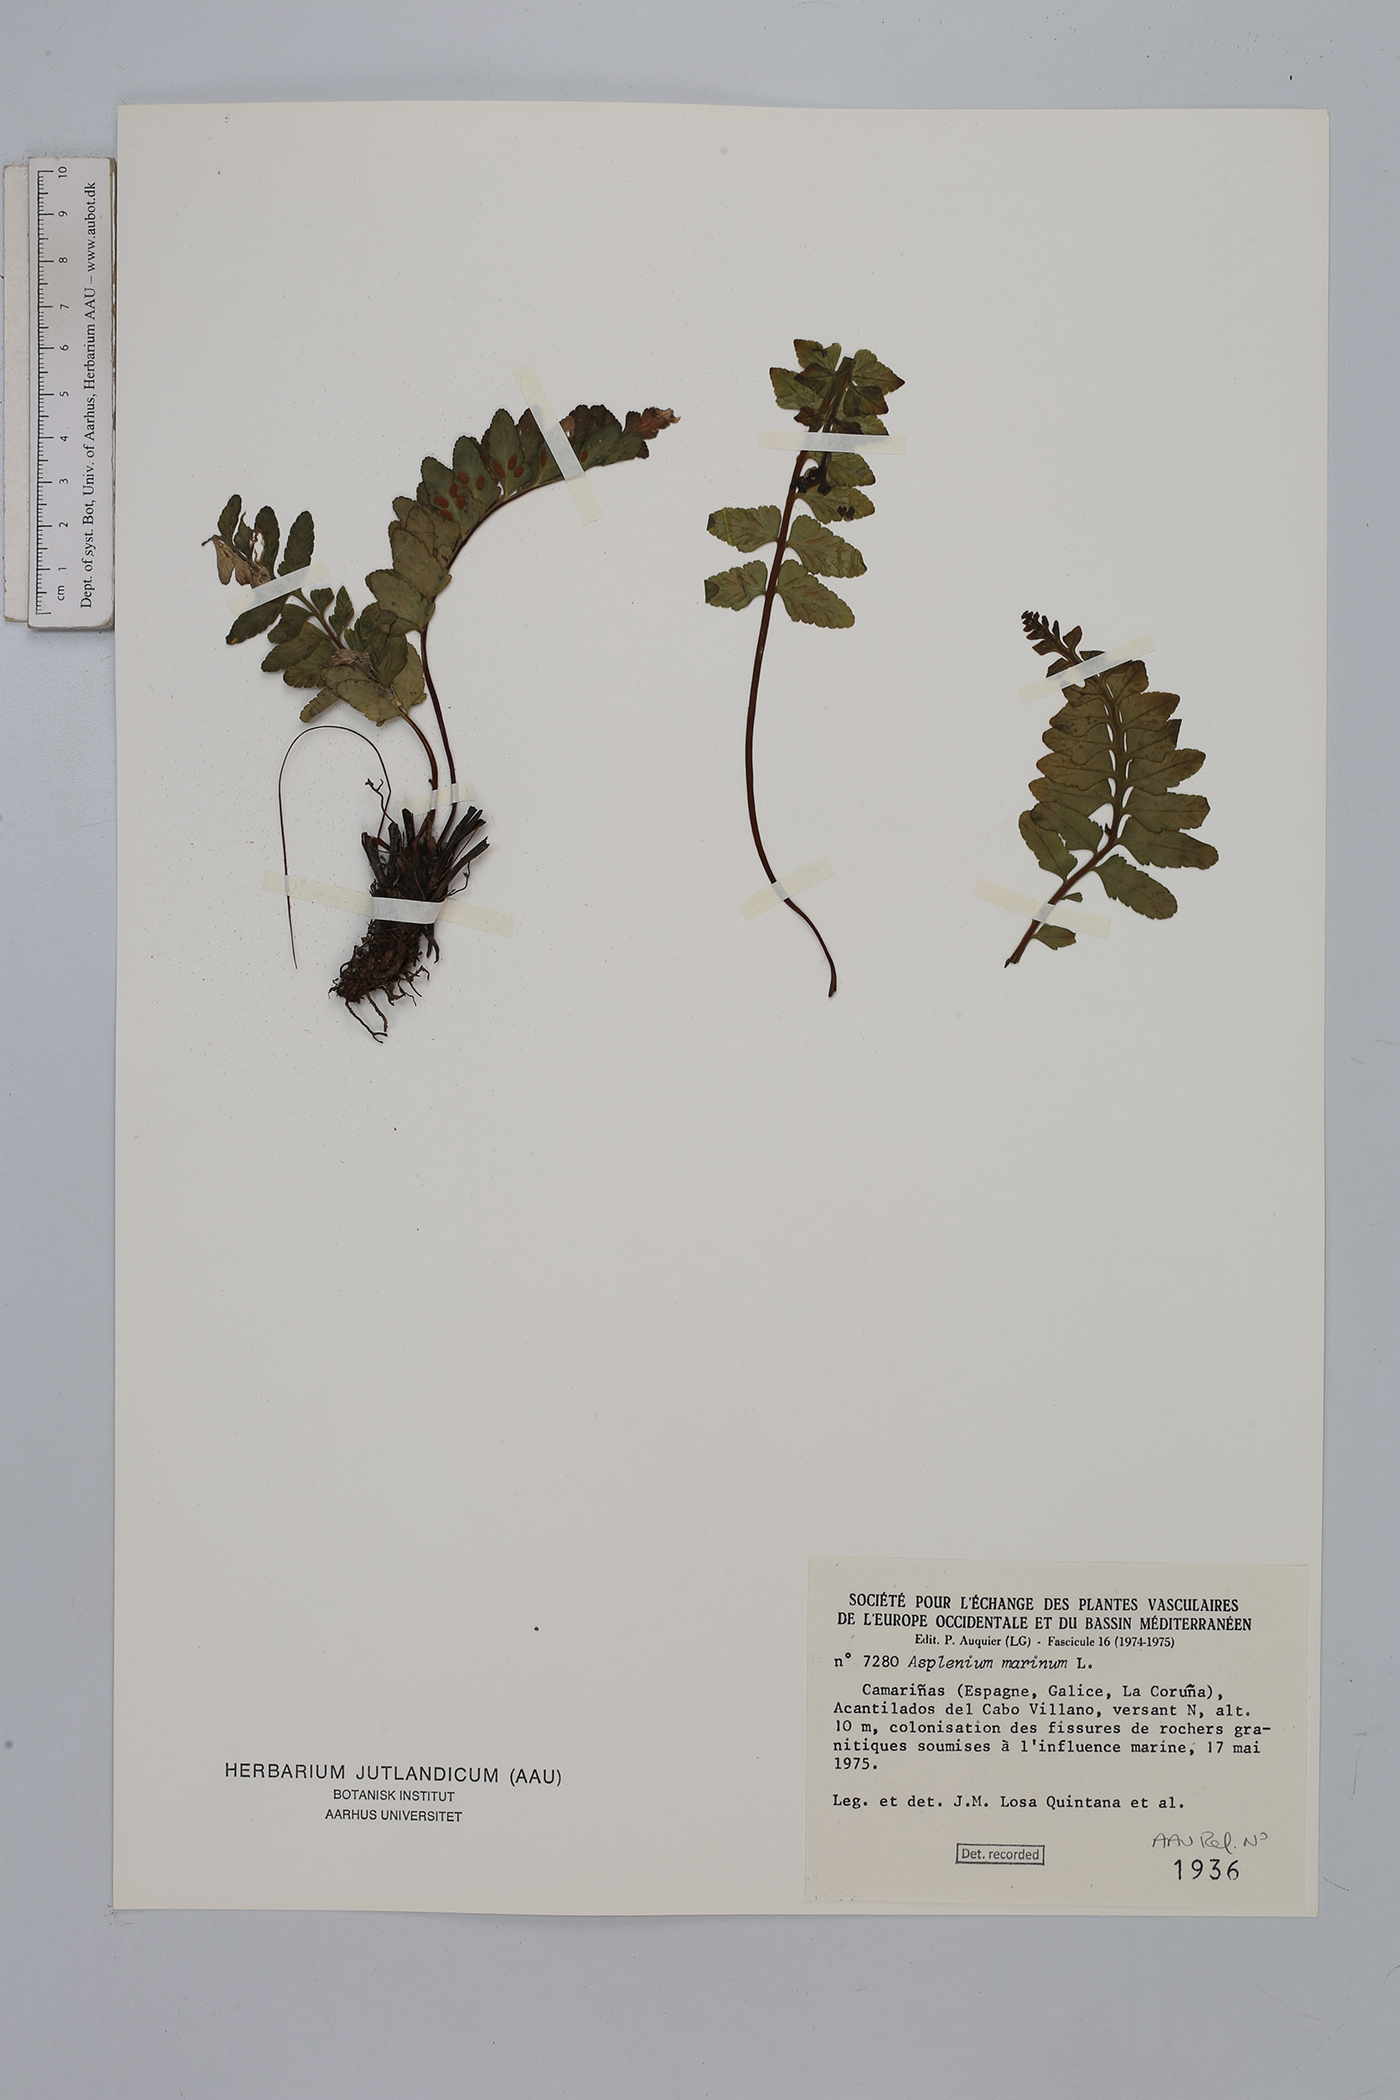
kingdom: Plantae
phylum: Tracheophyta
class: Polypodiopsida
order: Polypodiales
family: Aspleniaceae
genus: Asplenium
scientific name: Asplenium marinum
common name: Sea spleenwort
